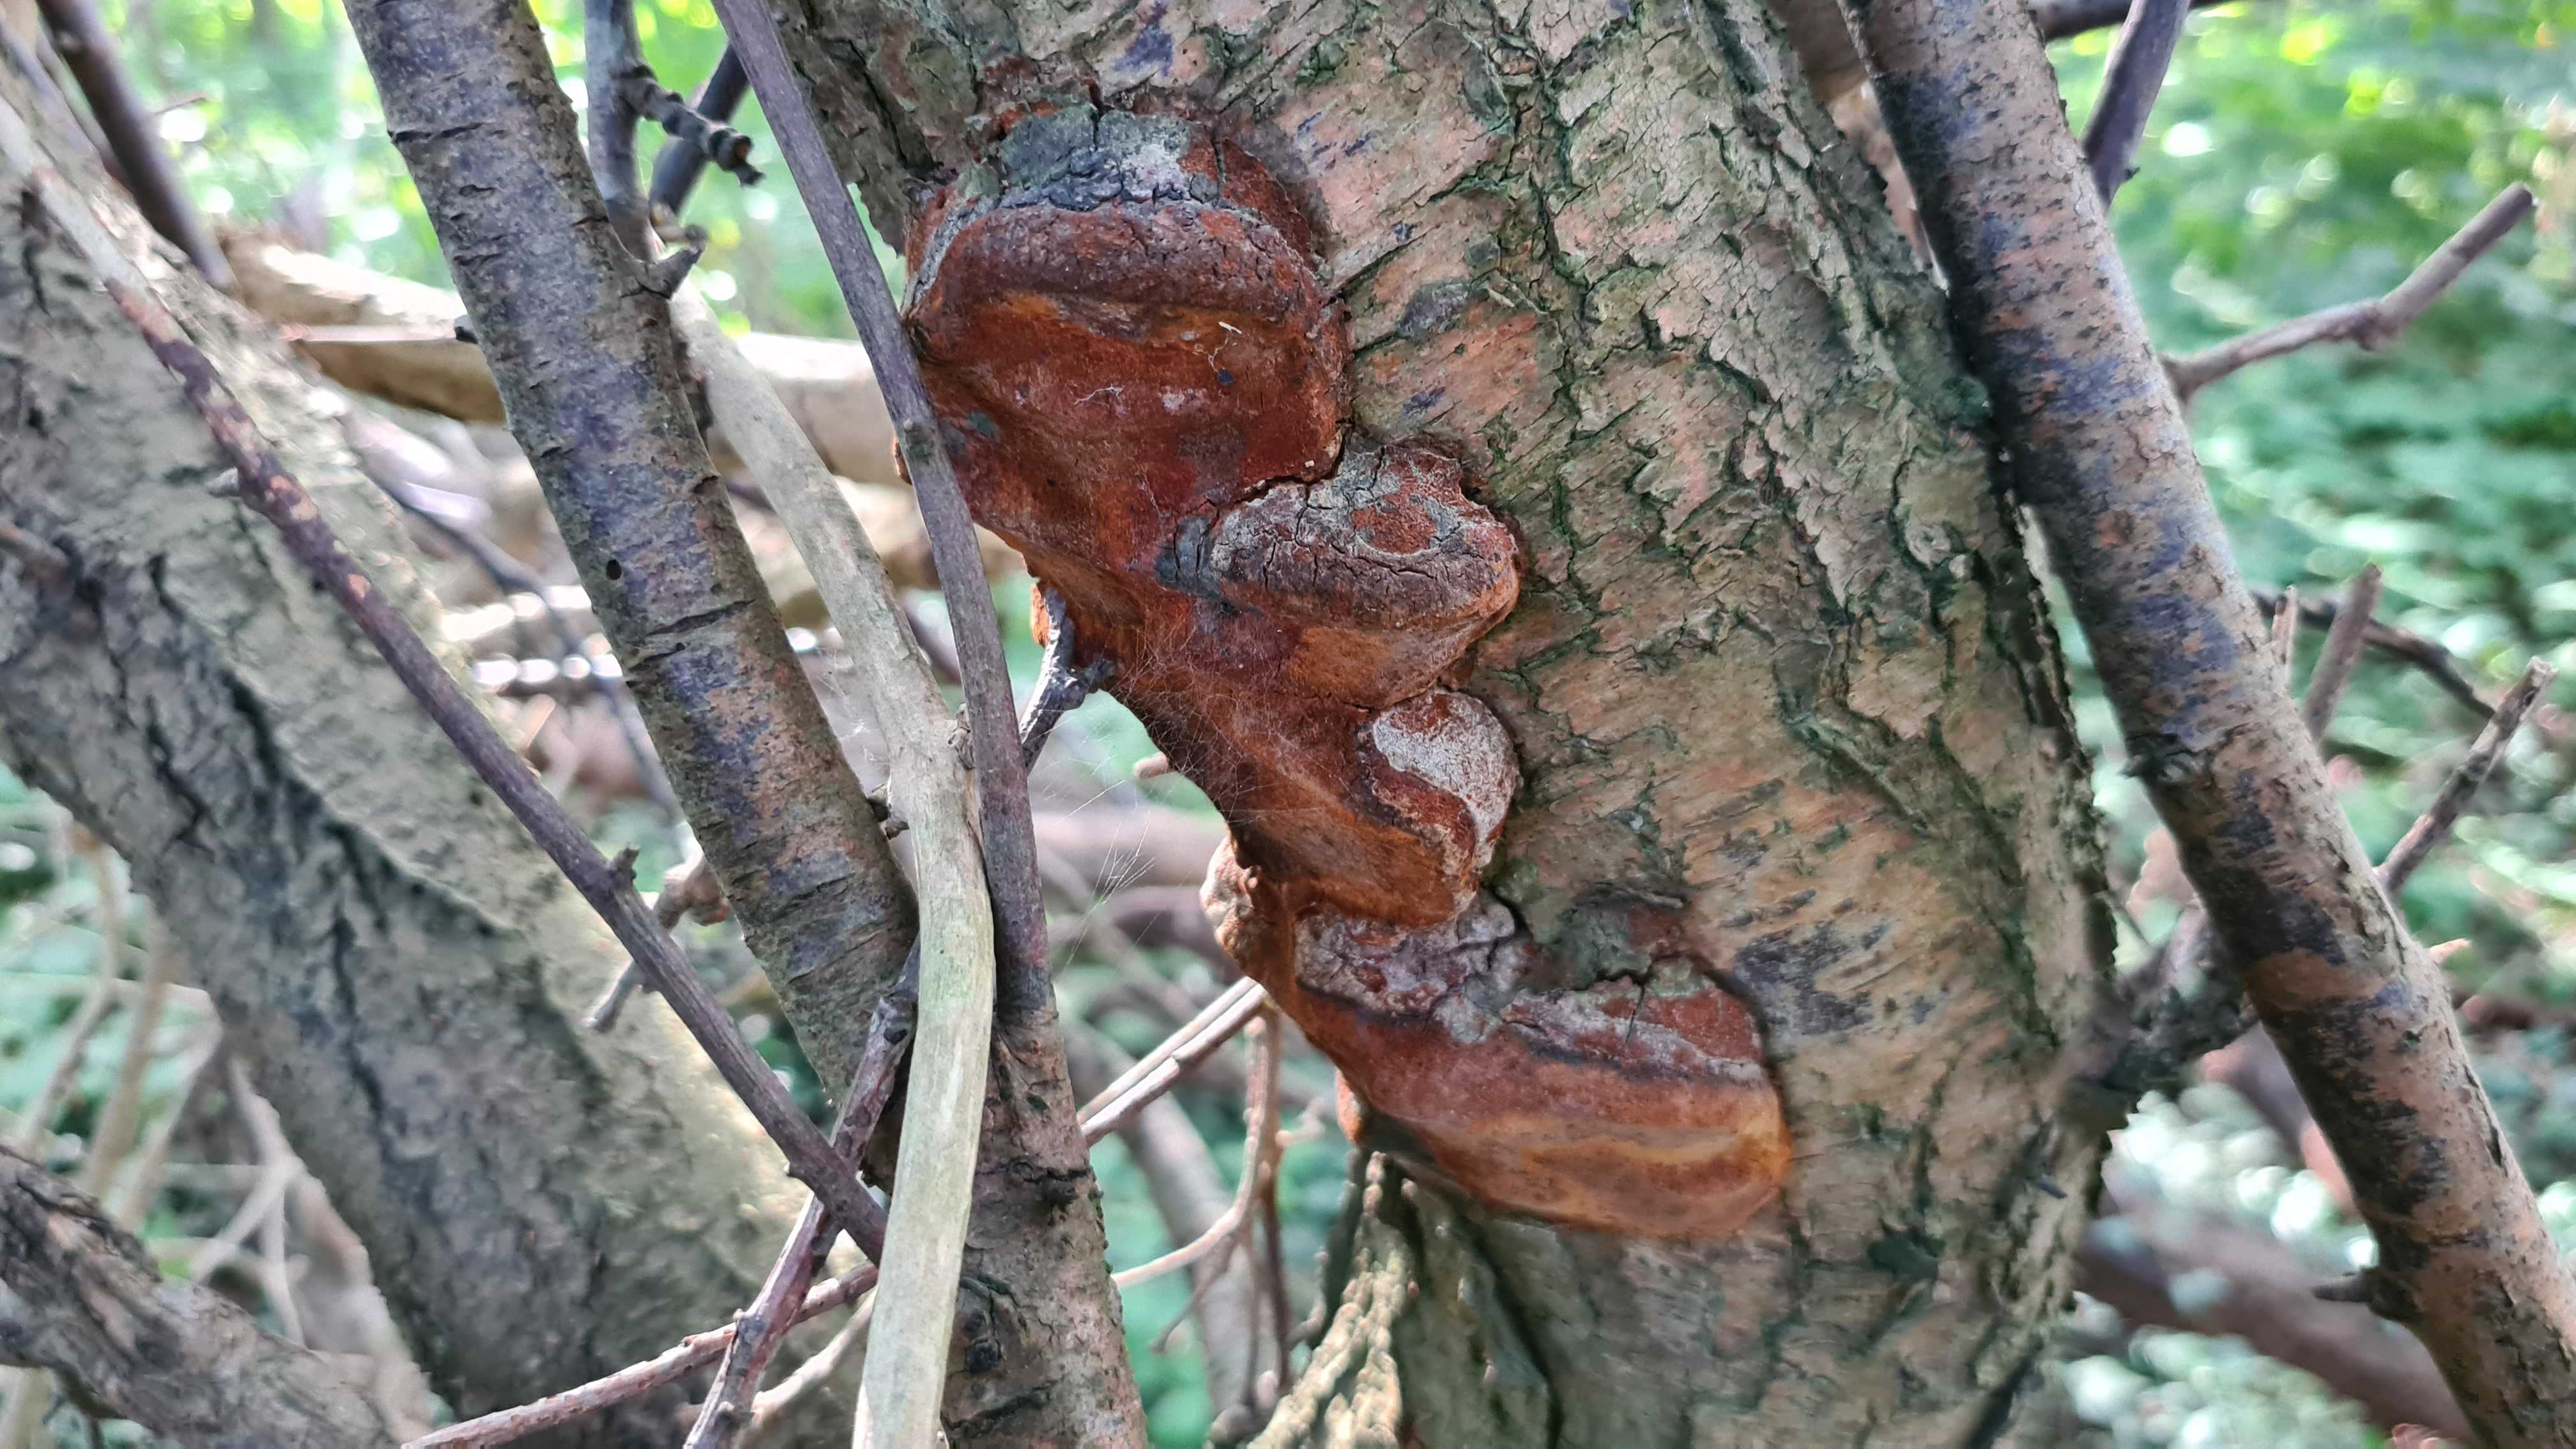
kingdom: Fungi
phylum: Basidiomycota
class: Agaricomycetes
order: Hymenochaetales
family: Hymenochaetaceae
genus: Phellinus
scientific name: Phellinus pomaceus
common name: blomme-ildporesvamp
